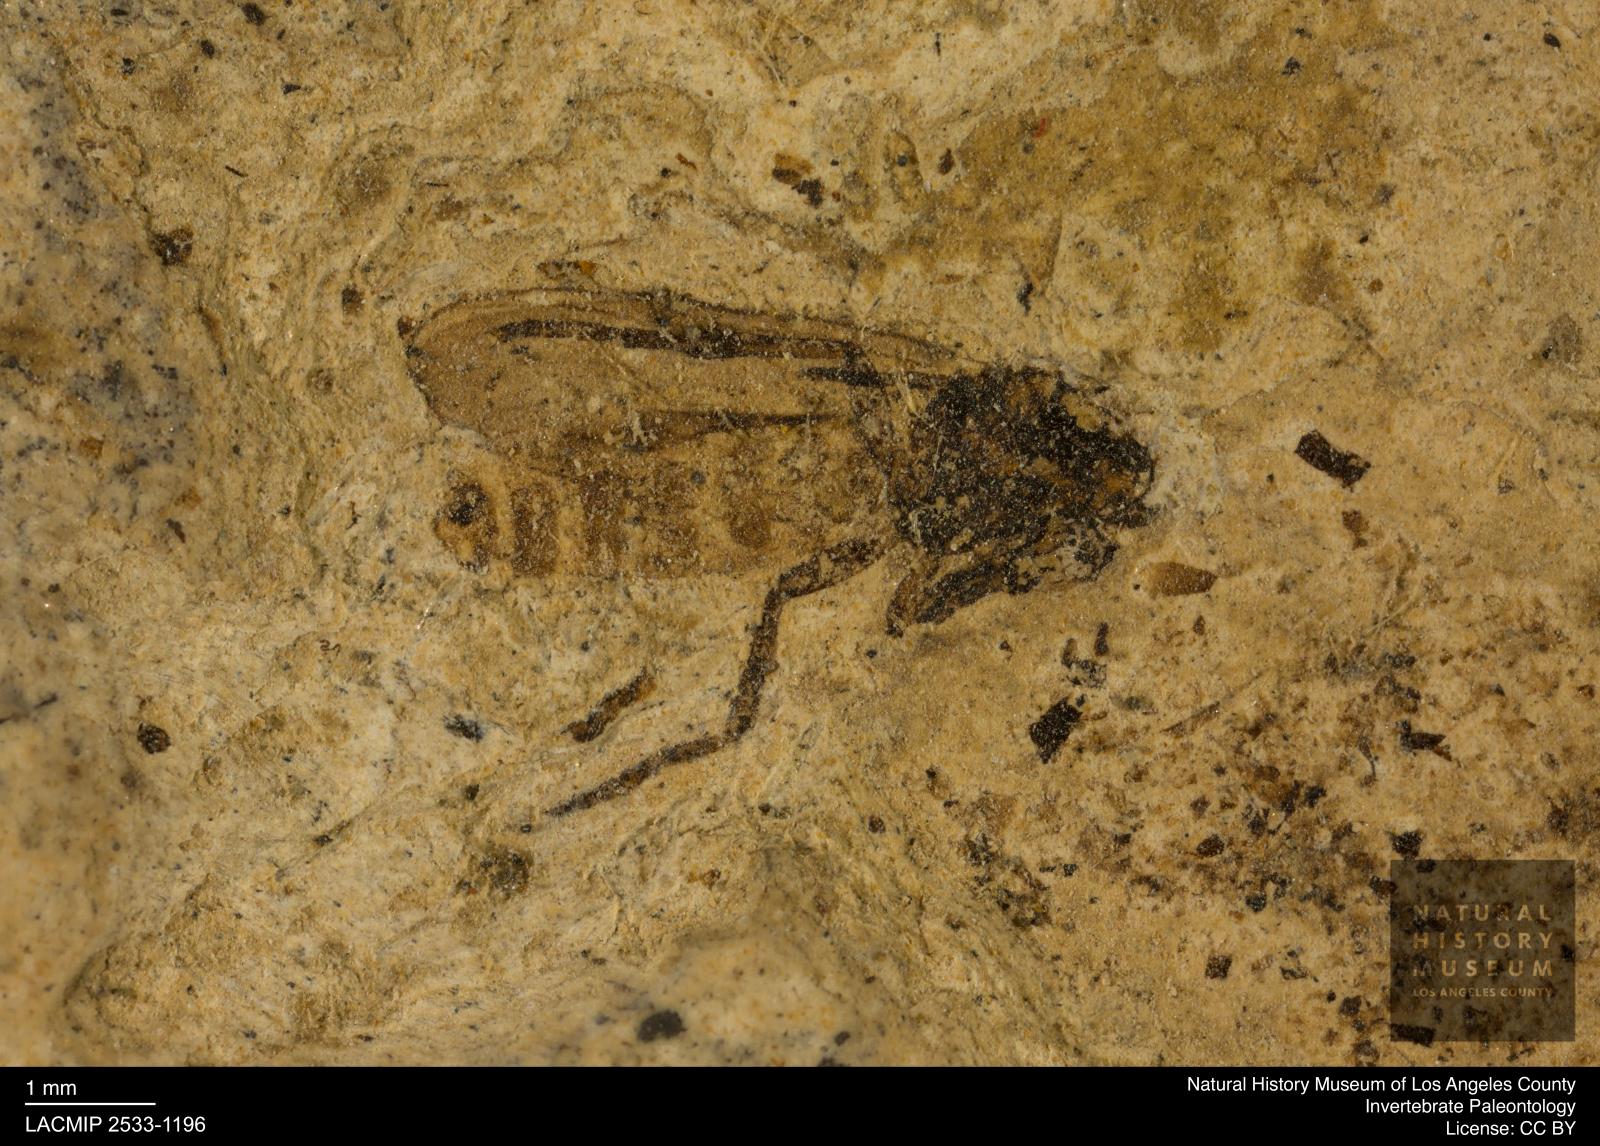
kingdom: Animalia
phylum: Arthropoda
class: Insecta
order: Diptera
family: Bibionidae
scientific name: Bibionidae
